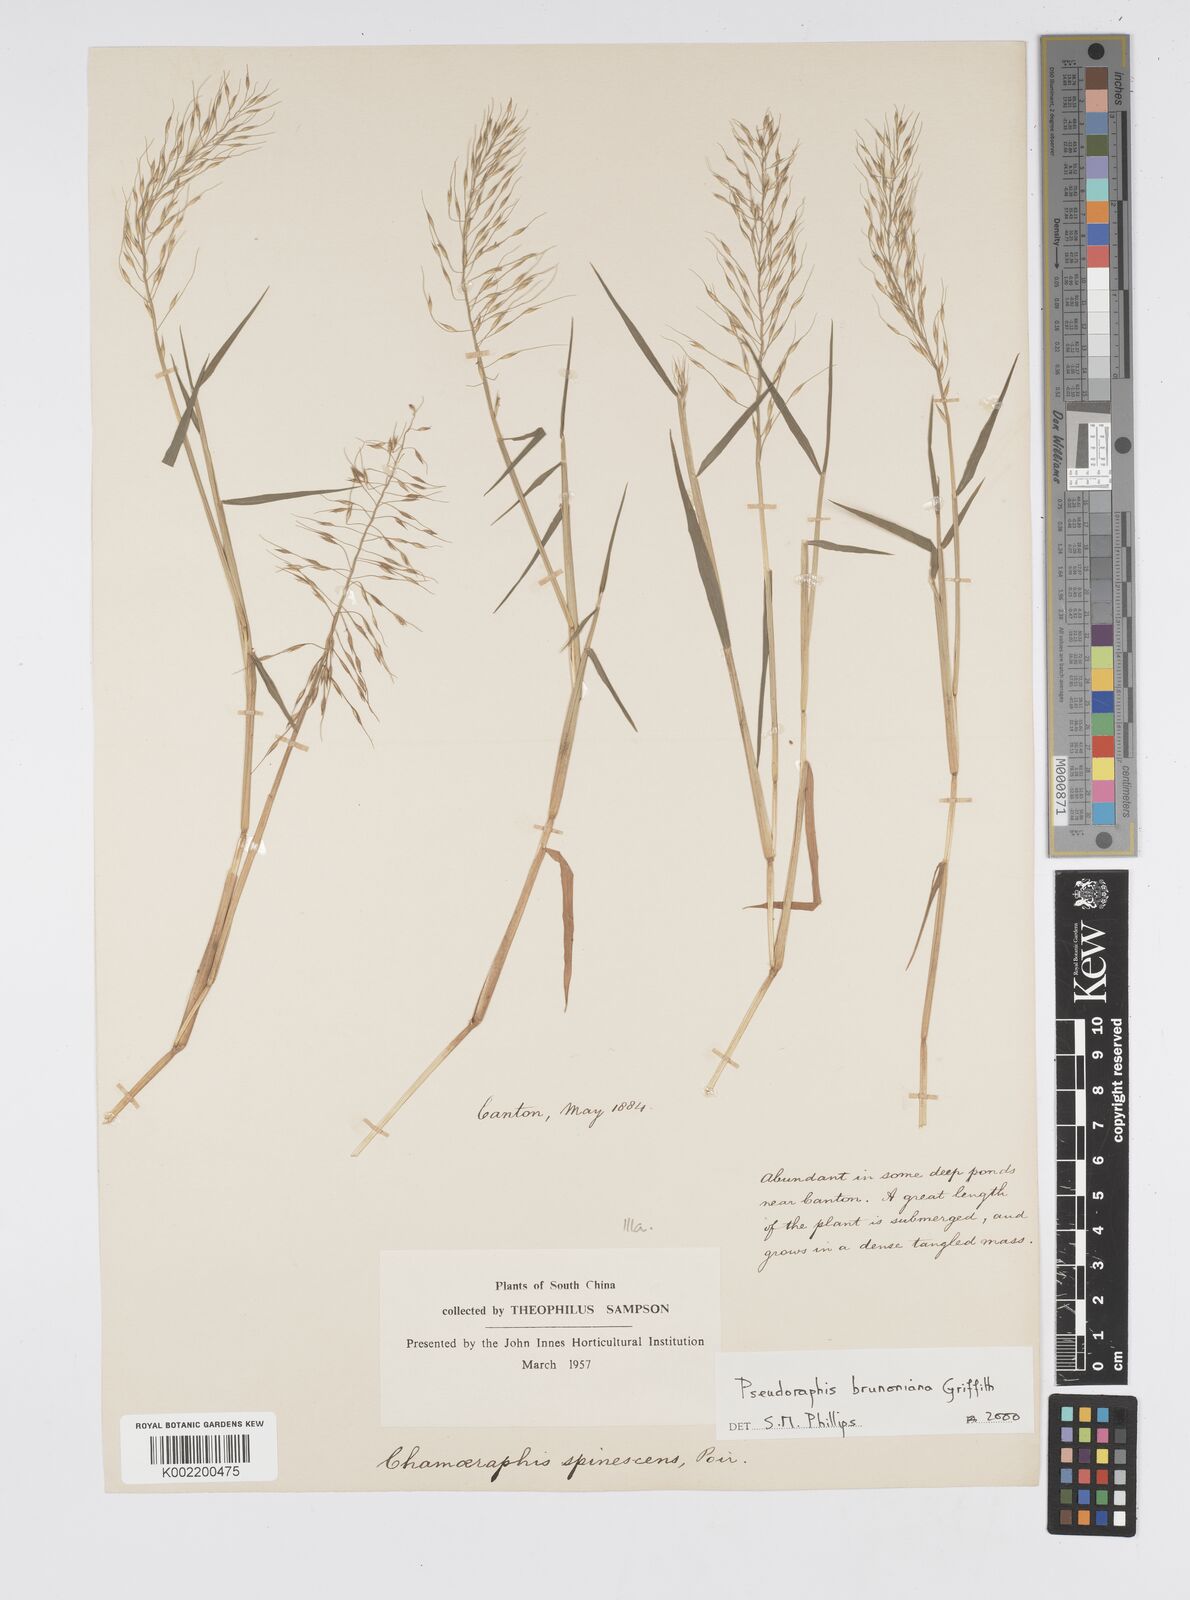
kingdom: Plantae
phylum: Tracheophyta
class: Liliopsida
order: Poales
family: Poaceae
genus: Pseudoraphis
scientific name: Pseudoraphis brunoniana
